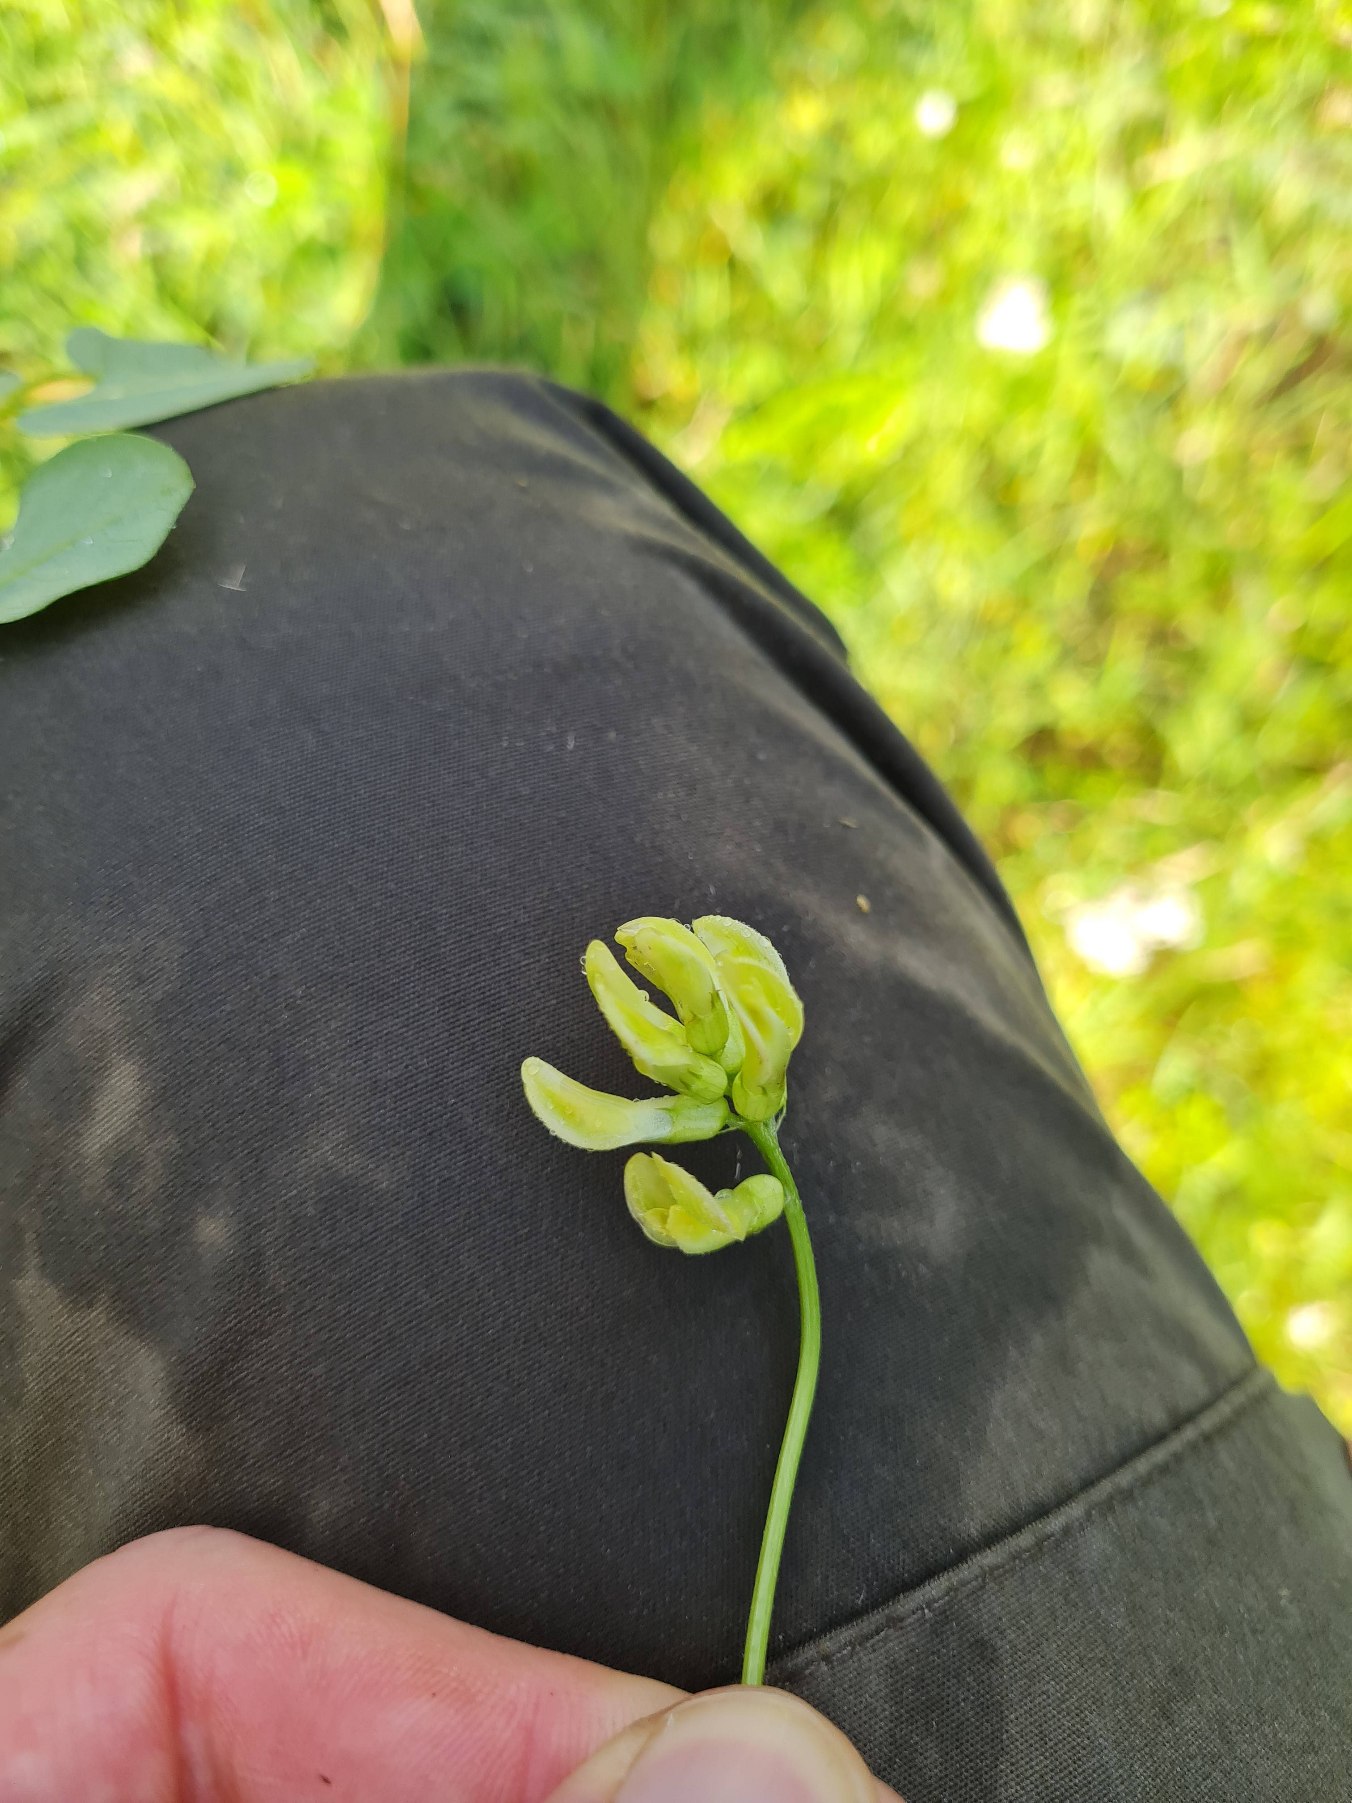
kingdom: Plantae
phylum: Tracheophyta
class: Magnoliopsida
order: Fabales
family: Fabaceae
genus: Astragalus
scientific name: Astragalus glycyphyllos
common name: Sød astragel
